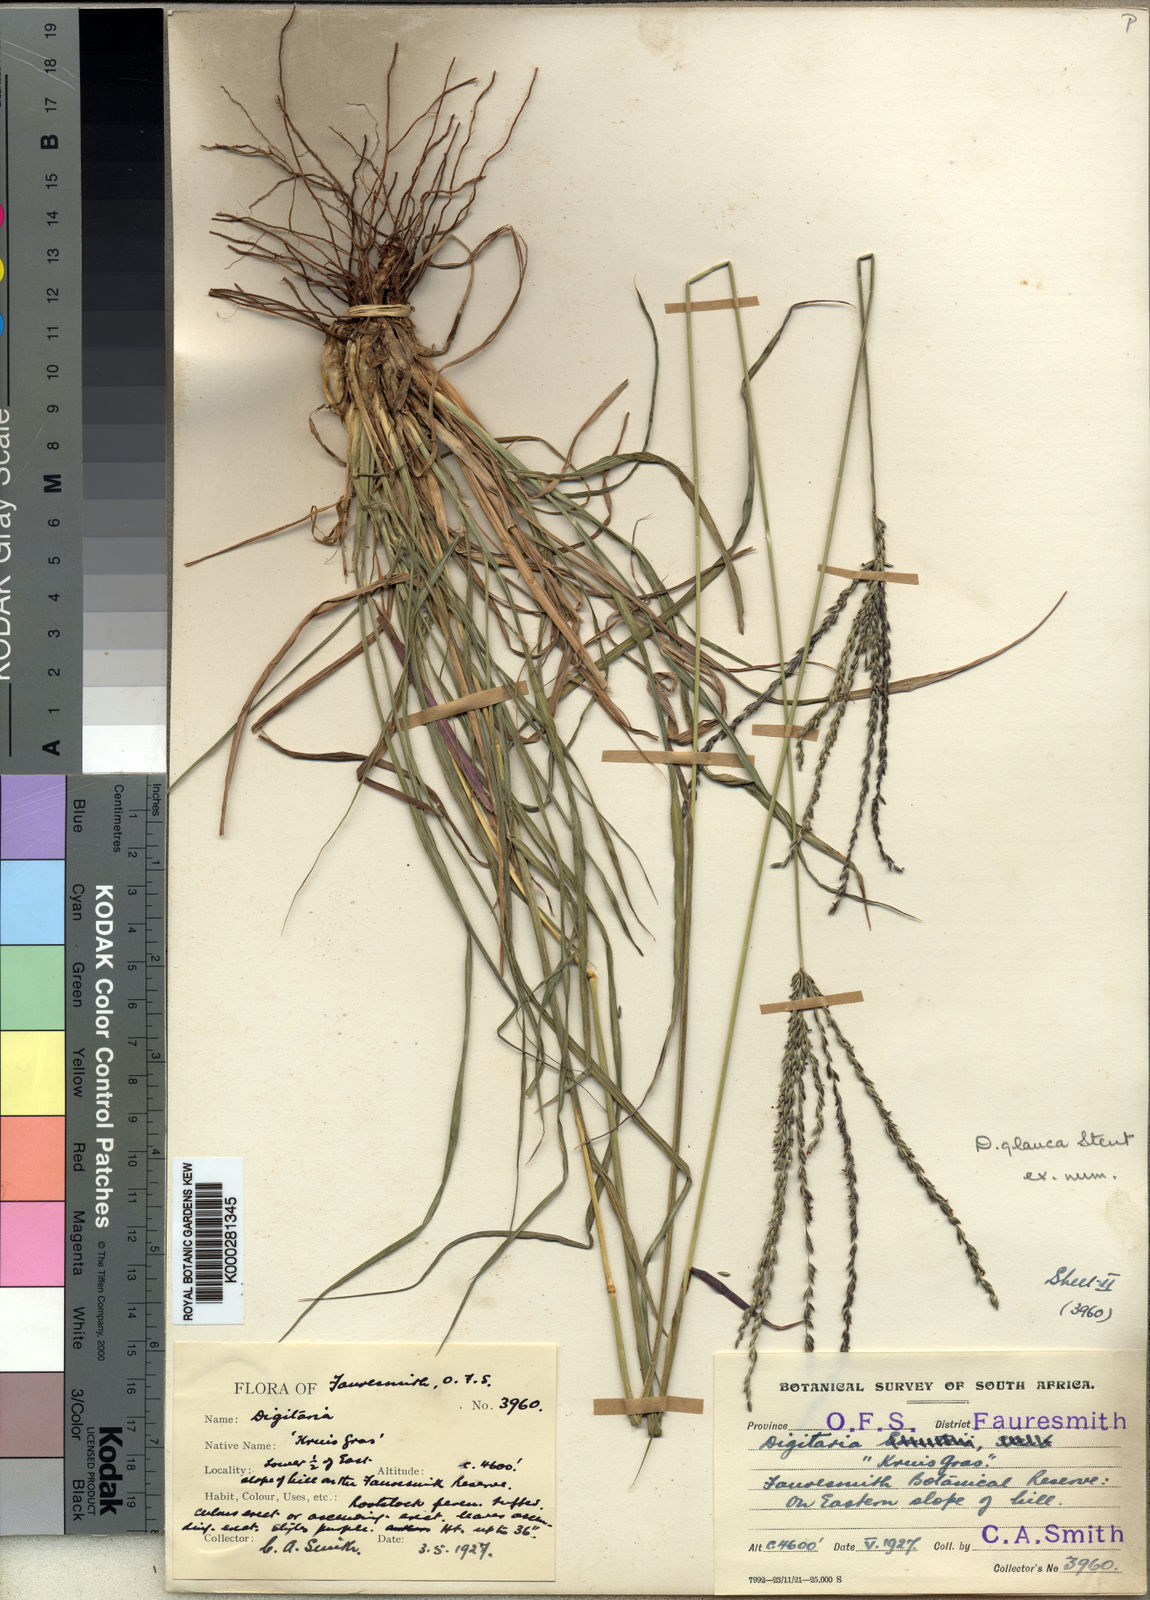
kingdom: Plantae
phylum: Tracheophyta
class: Liliopsida
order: Poales
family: Poaceae
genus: Digitaria
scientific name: Digitaria eriantha
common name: Digitgrass
